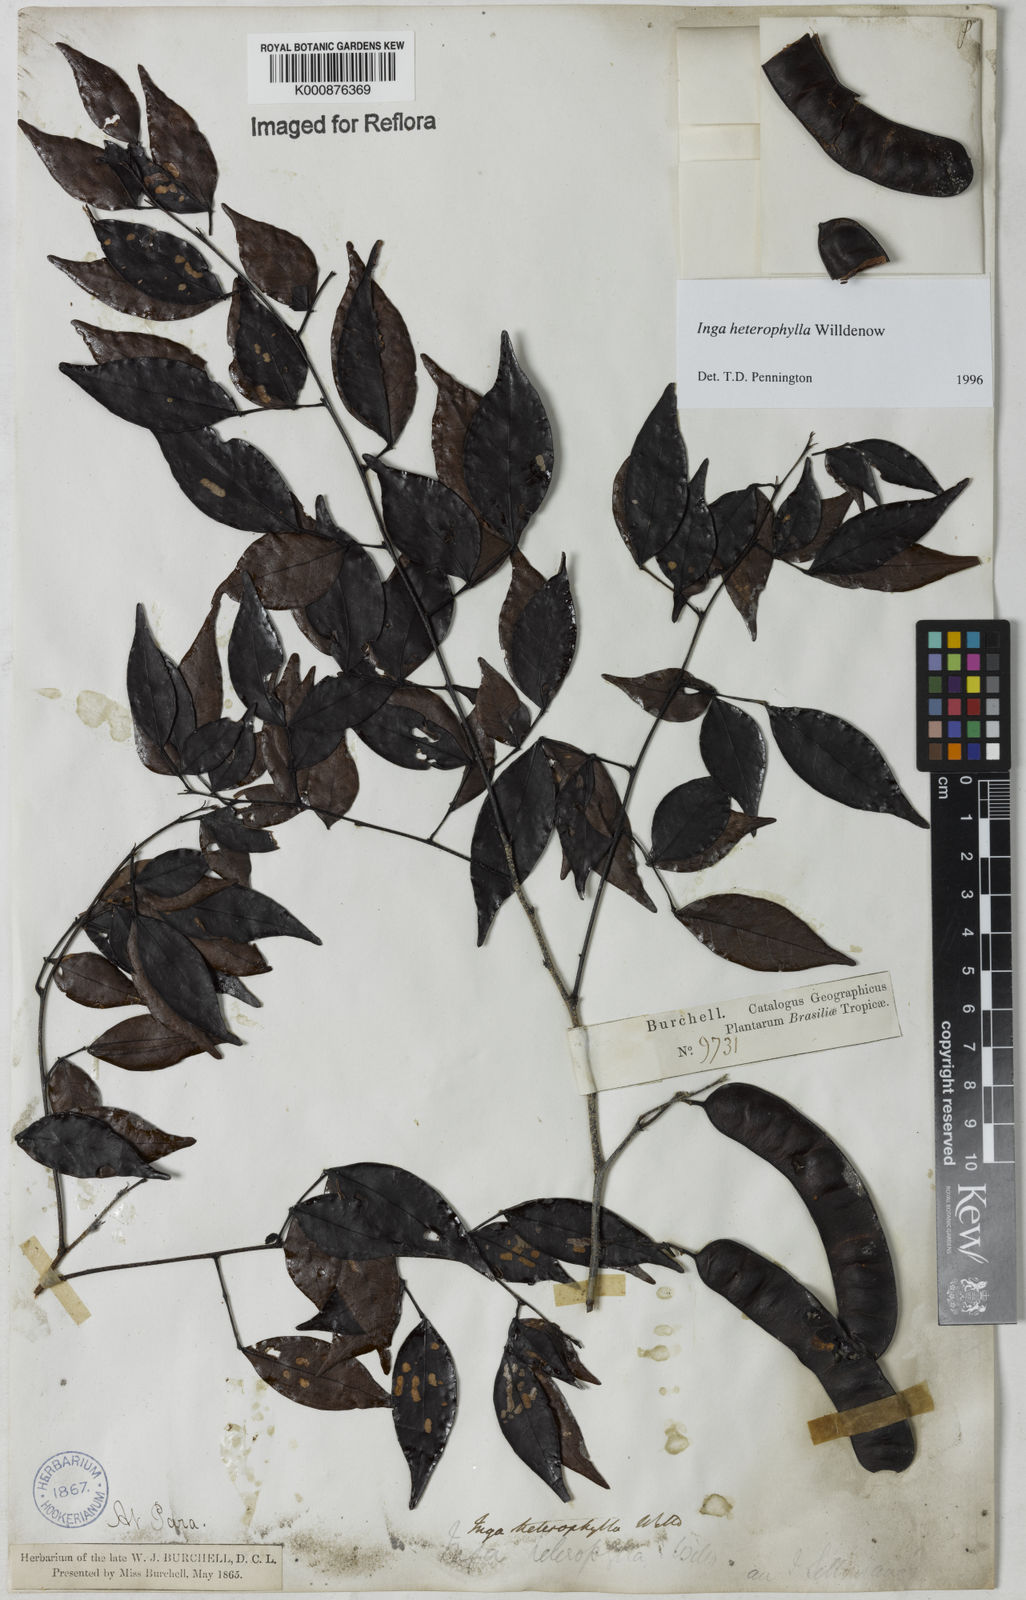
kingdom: Plantae
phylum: Tracheophyta
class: Magnoliopsida
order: Fabales
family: Fabaceae
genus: Inga
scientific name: Inga heterophylla
